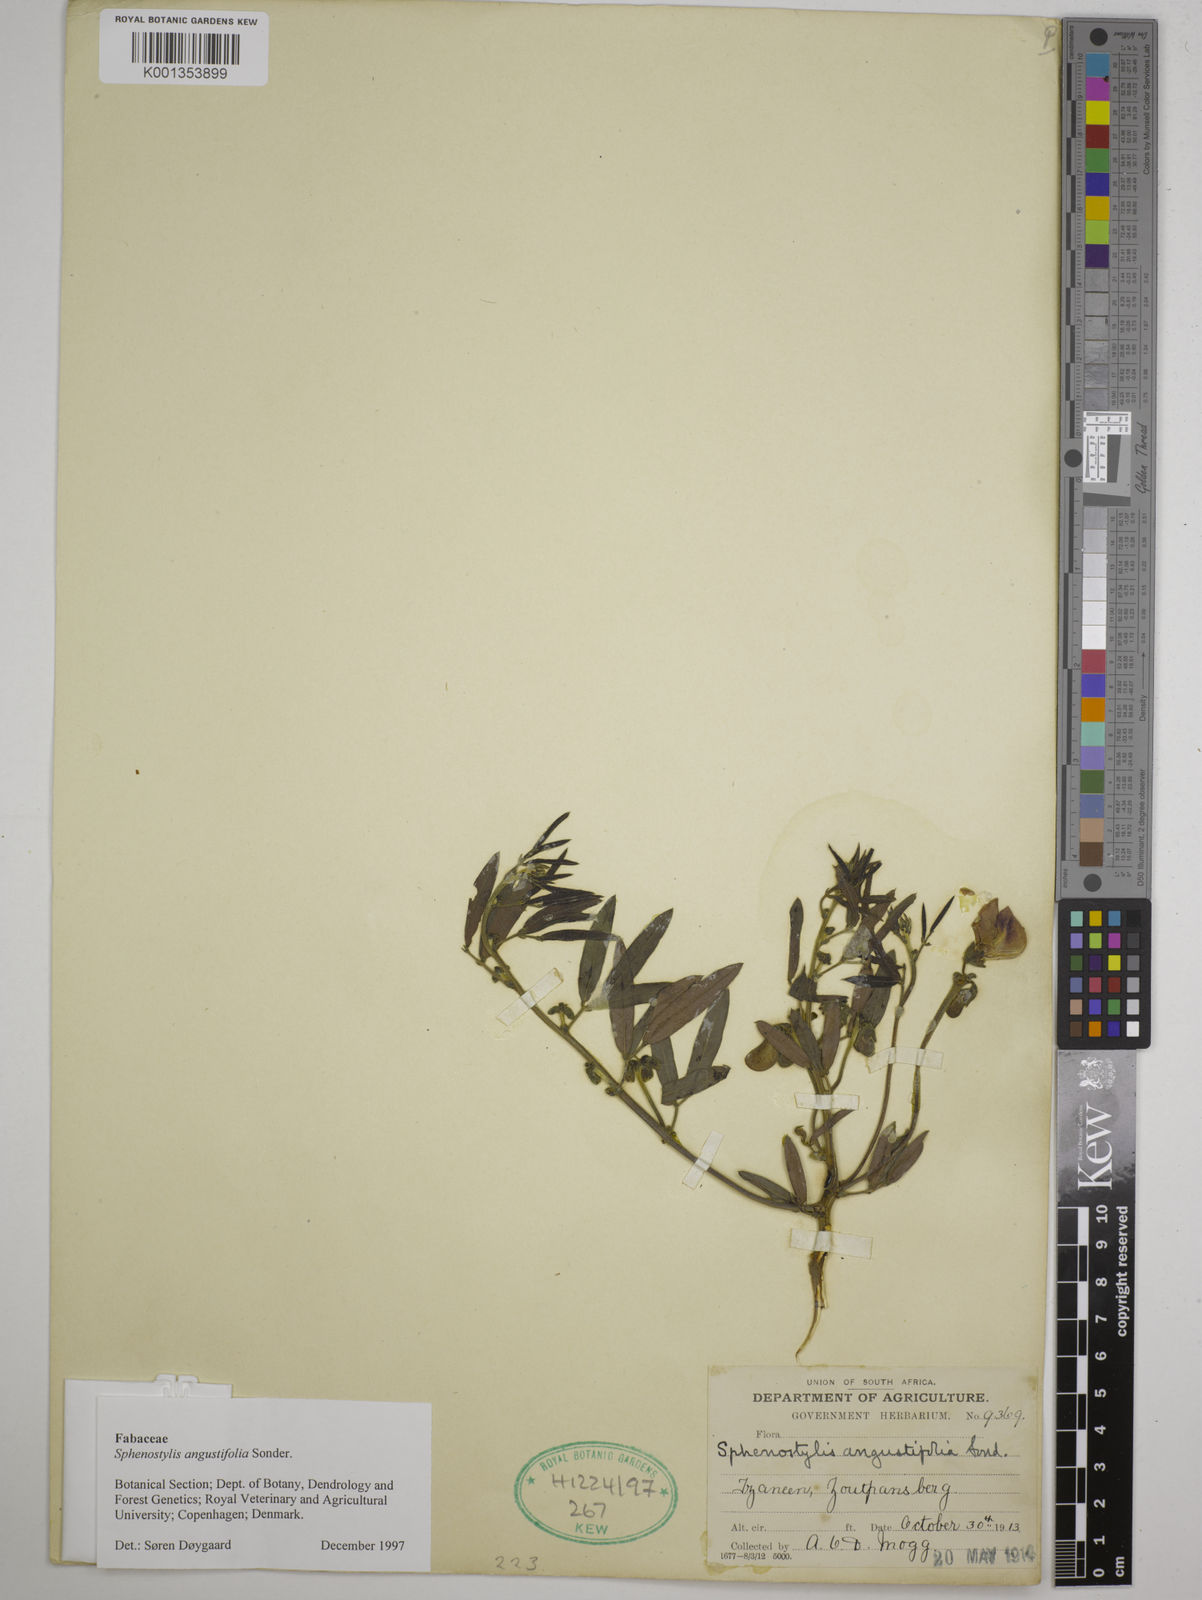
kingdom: Plantae
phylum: Tracheophyta
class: Magnoliopsida
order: Fabales
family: Fabaceae
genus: Sphenostylis
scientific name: Sphenostylis angustifolia
